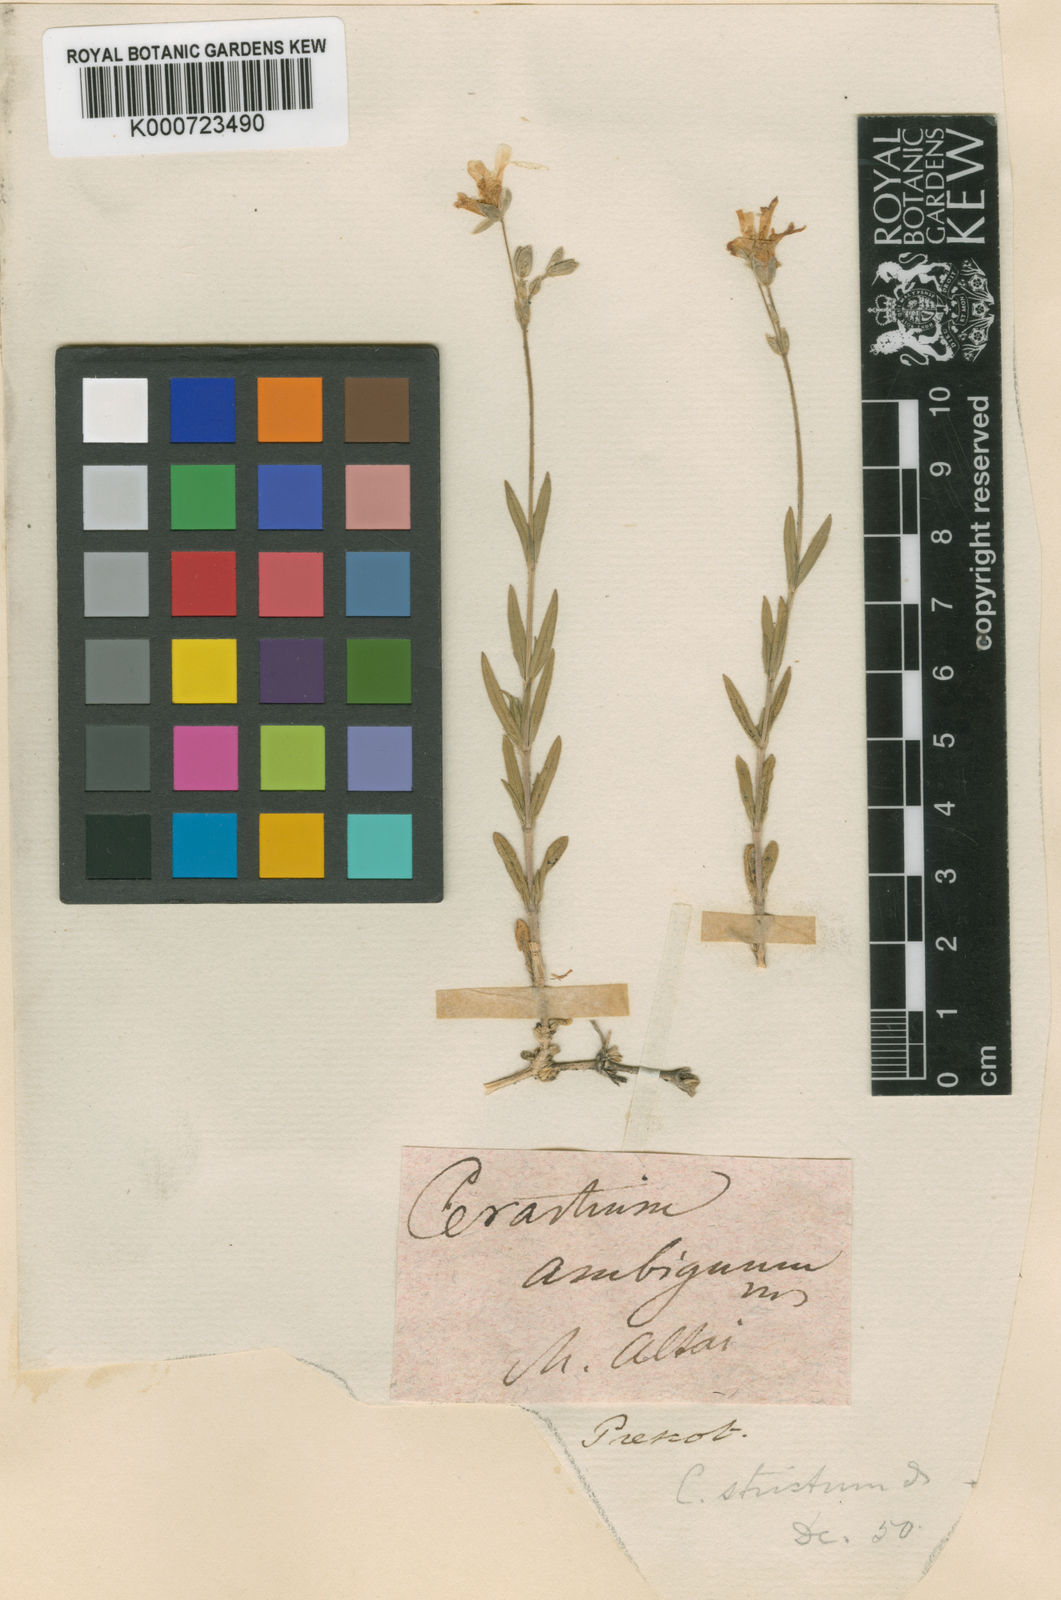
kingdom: Plantae
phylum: Tracheophyta
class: Magnoliopsida
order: Caryophyllales
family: Caryophyllaceae
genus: Cerastium
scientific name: Cerastium arvense
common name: Field mouse-ear
